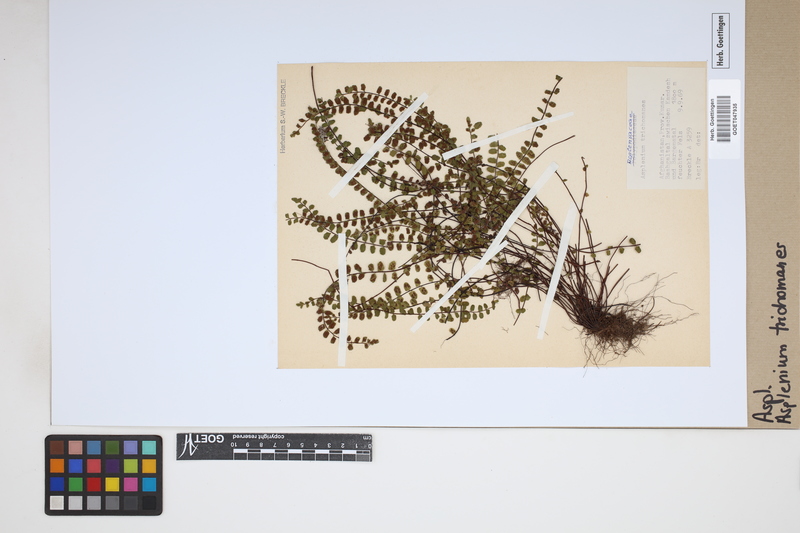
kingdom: Plantae
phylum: Tracheophyta
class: Polypodiopsida
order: Polypodiales
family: Aspleniaceae
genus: Asplenium
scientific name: Asplenium trichomanes
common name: Maidenhair spleenwort
